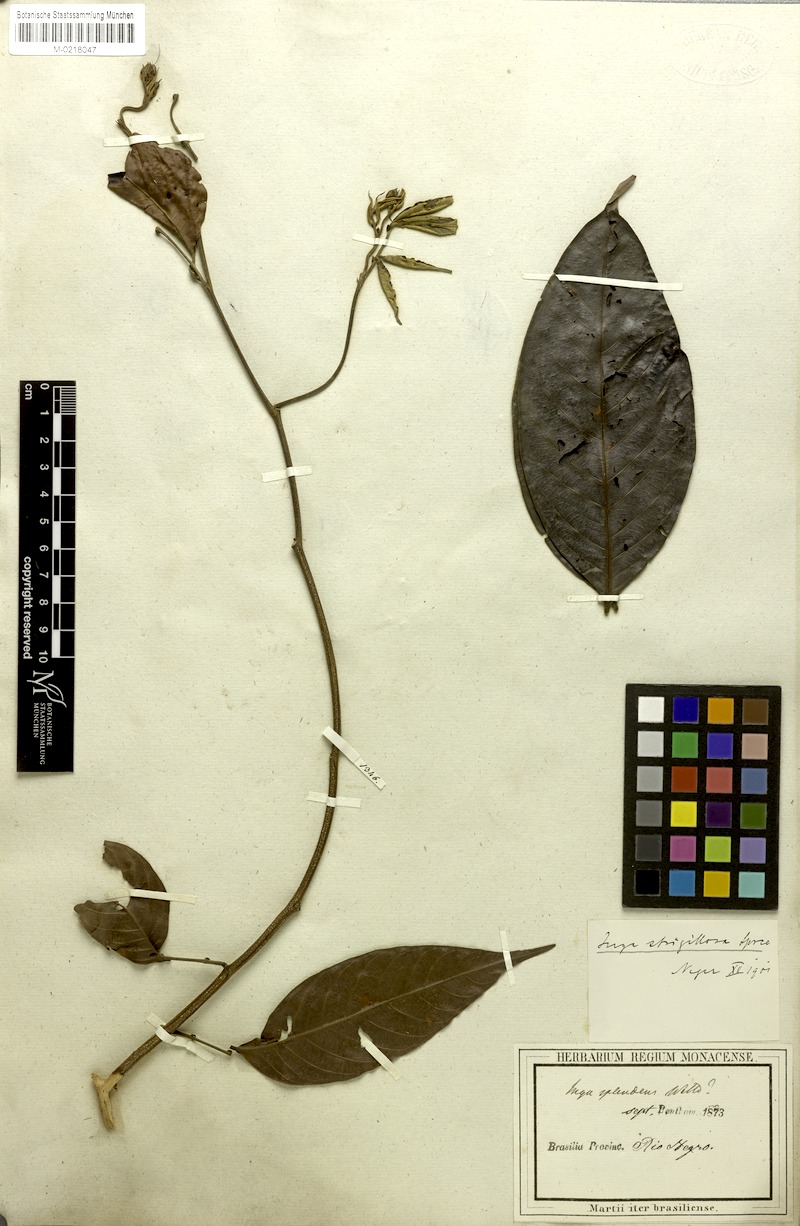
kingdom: Plantae
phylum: Tracheophyta
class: Magnoliopsida
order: Fabales
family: Fabaceae
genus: Inga
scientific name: Inga punctata
